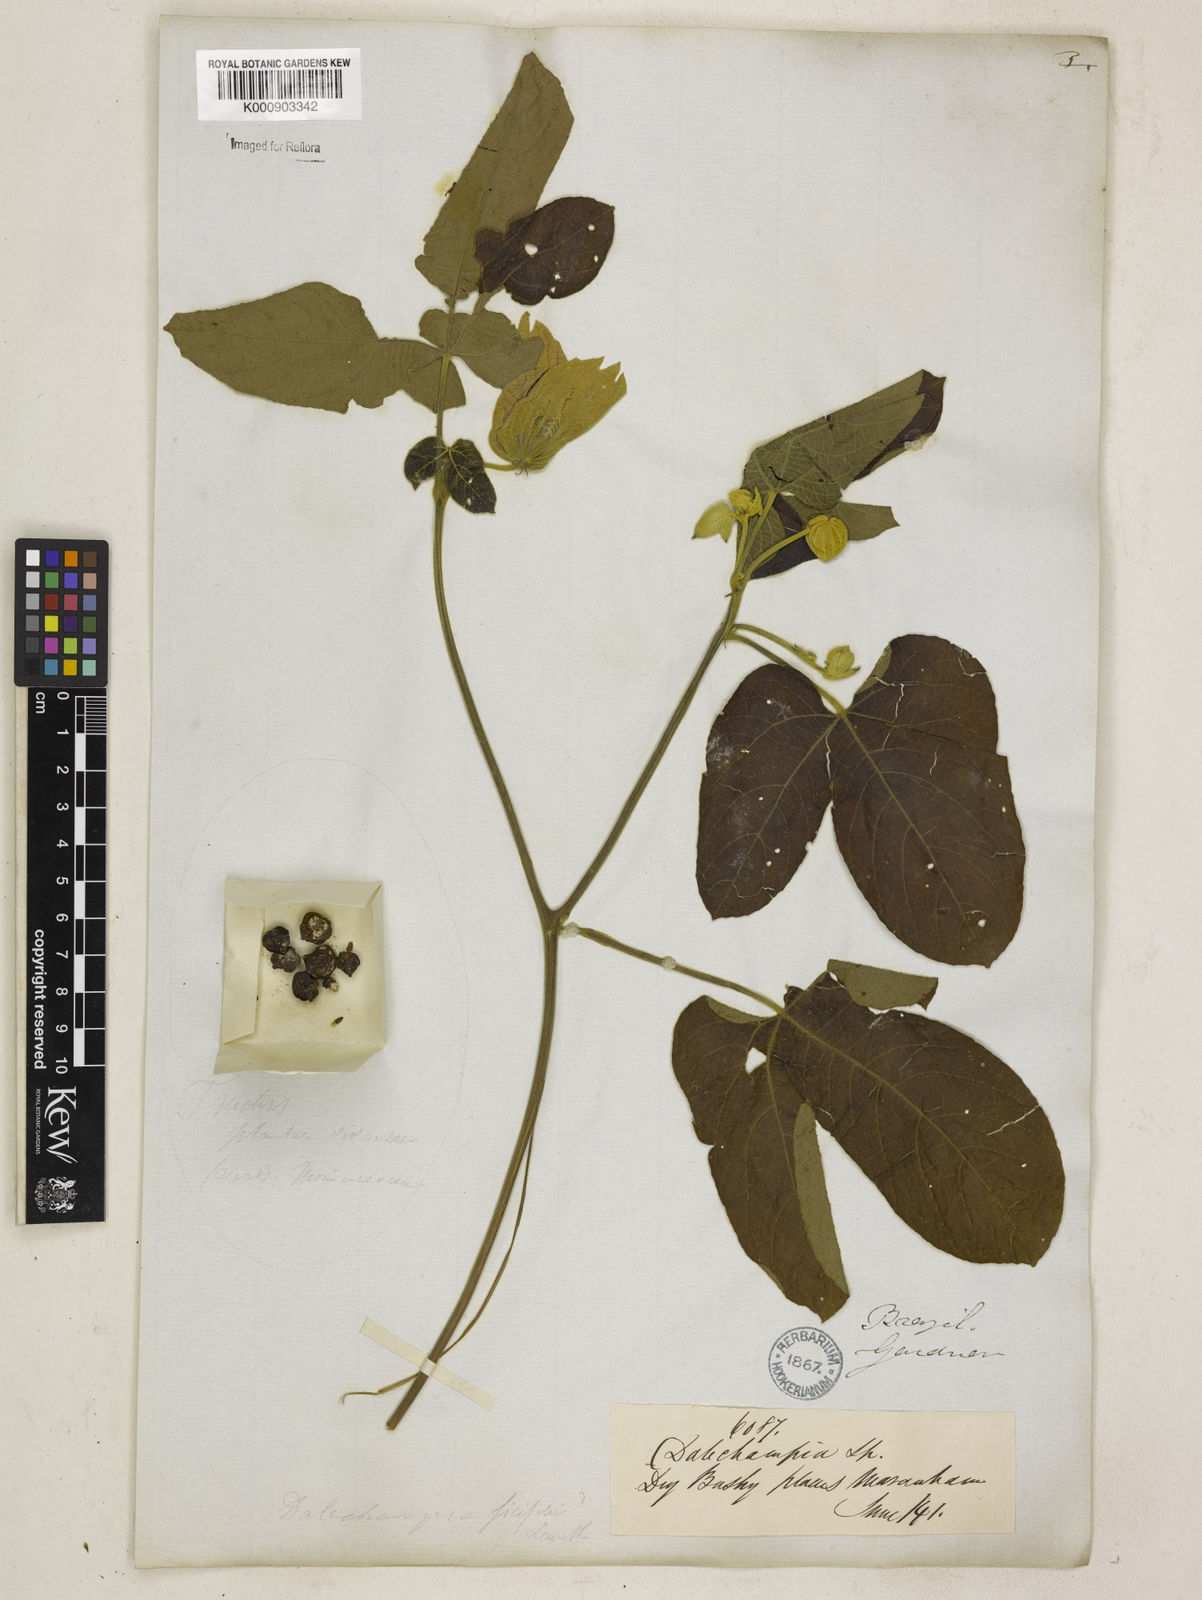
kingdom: Plantae
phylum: Tracheophyta
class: Magnoliopsida
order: Malpighiales
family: Euphorbiaceae
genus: Dalechampia
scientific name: Dalechampia tiliifolia
